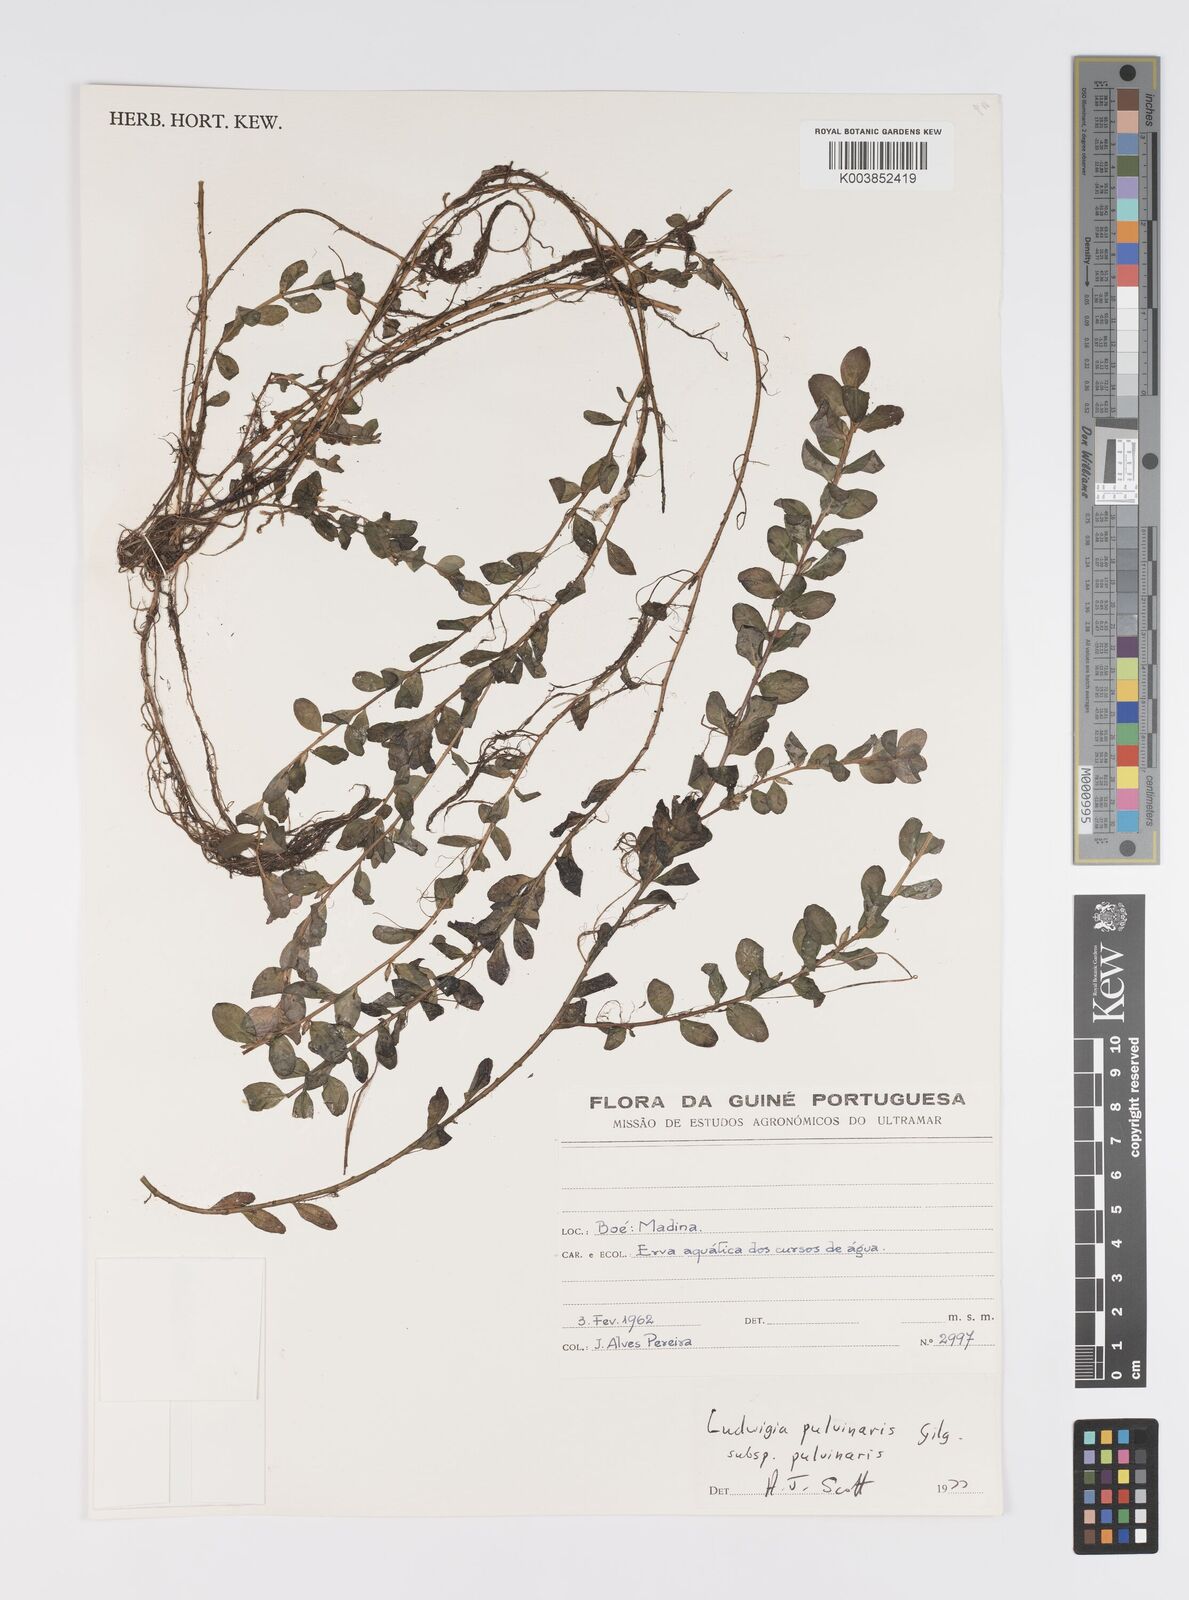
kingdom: Plantae
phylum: Tracheophyta
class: Magnoliopsida
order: Myrtales
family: Onagraceae
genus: Ludwigia
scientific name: Ludwigia senegalensis
